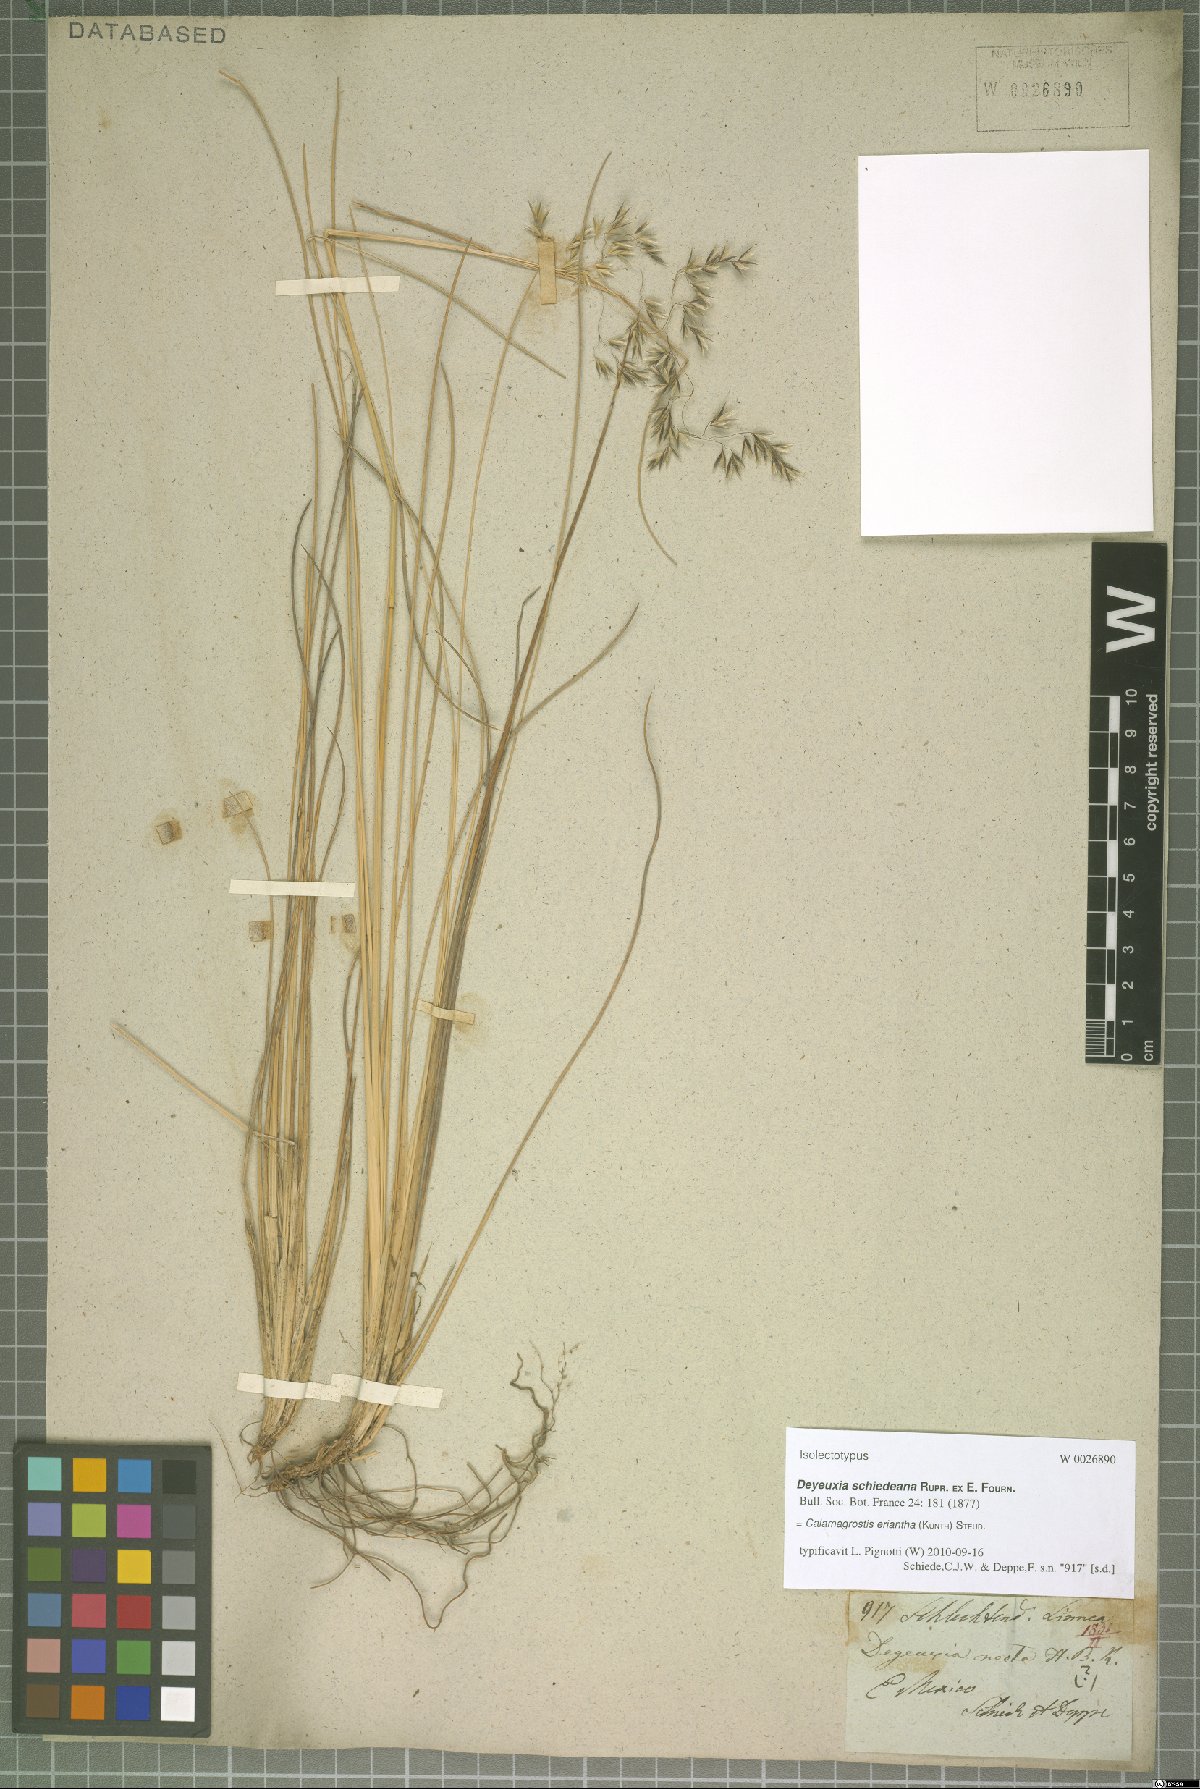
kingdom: Plantae
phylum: Tracheophyta
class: Liliopsida
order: Poales
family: Poaceae
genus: Peyritschia
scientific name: Peyritschia eriantha
